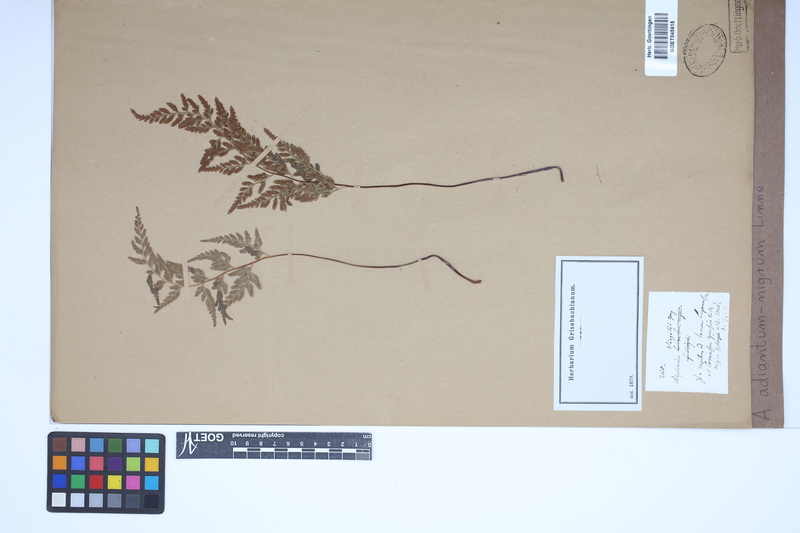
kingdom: Plantae
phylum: Tracheophyta
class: Polypodiopsida
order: Polypodiales
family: Aspleniaceae
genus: Asplenium
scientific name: Asplenium adiantum-nigrum
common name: Black spleenwort
